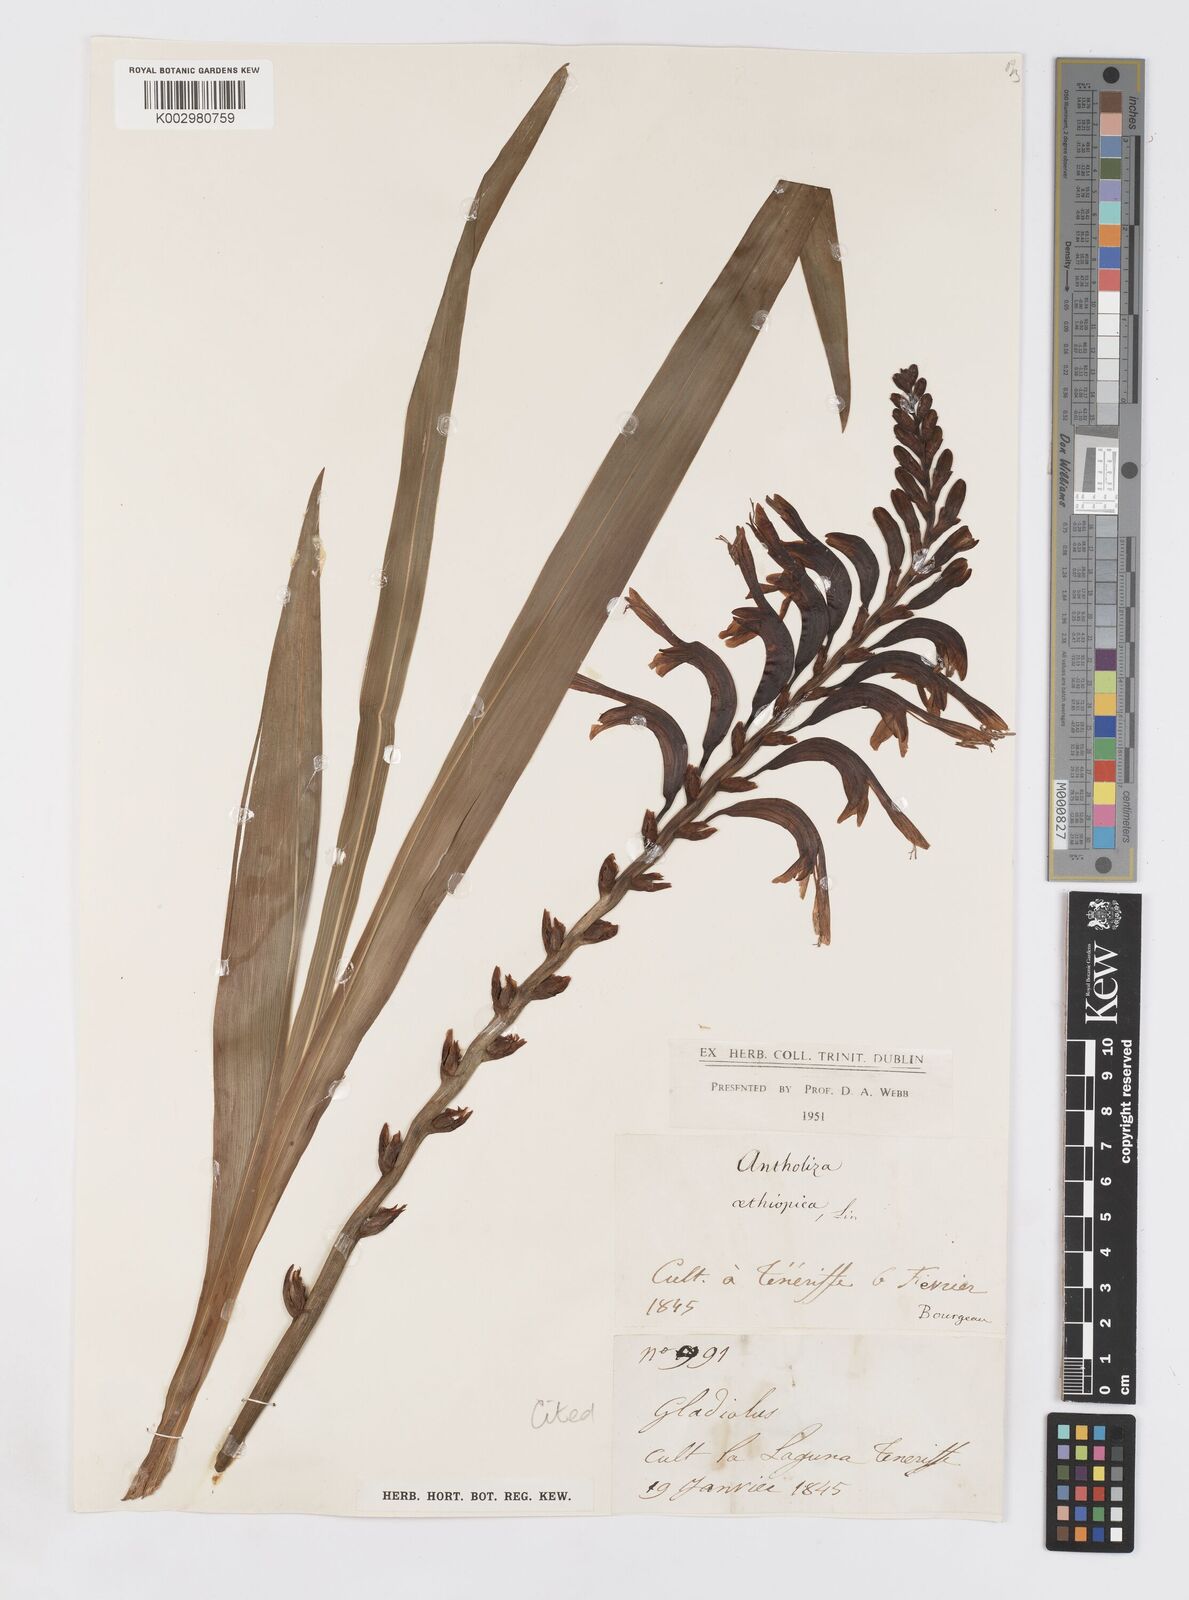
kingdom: Plantae
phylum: Tracheophyta
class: Liliopsida
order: Asparagales
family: Iridaceae
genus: Chasmanthe
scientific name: Chasmanthe floribunda
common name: African cornflag
